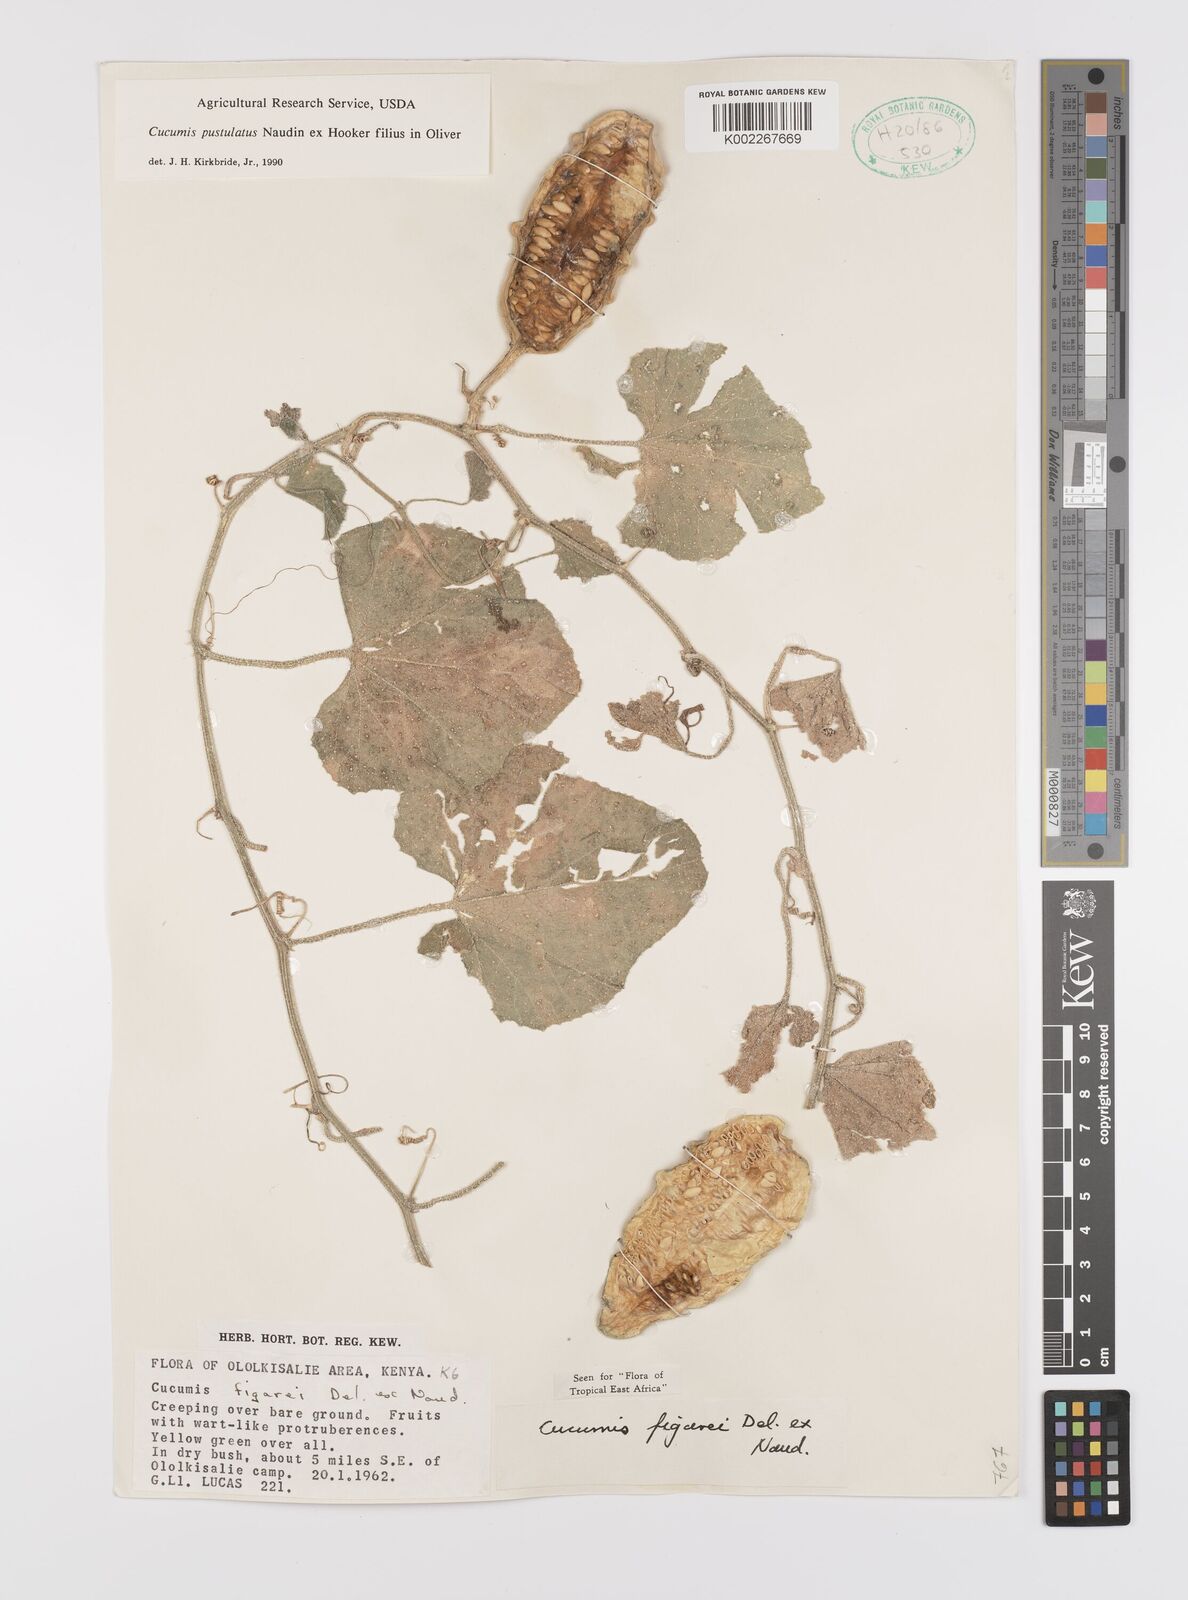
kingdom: Plantae
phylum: Tracheophyta
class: Magnoliopsida
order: Cucurbitales
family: Cucurbitaceae
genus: Cucumis
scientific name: Cucumis
